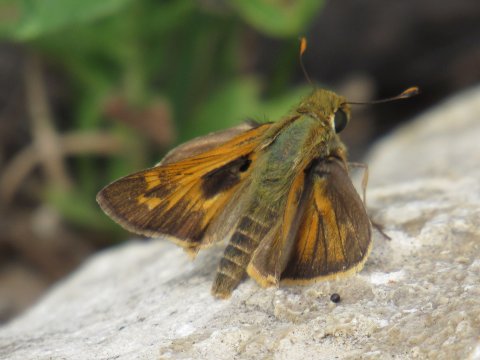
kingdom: Animalia
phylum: Arthropoda
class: Insecta
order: Lepidoptera
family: Hesperiidae
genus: Atalopedes
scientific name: Atalopedes campestris
